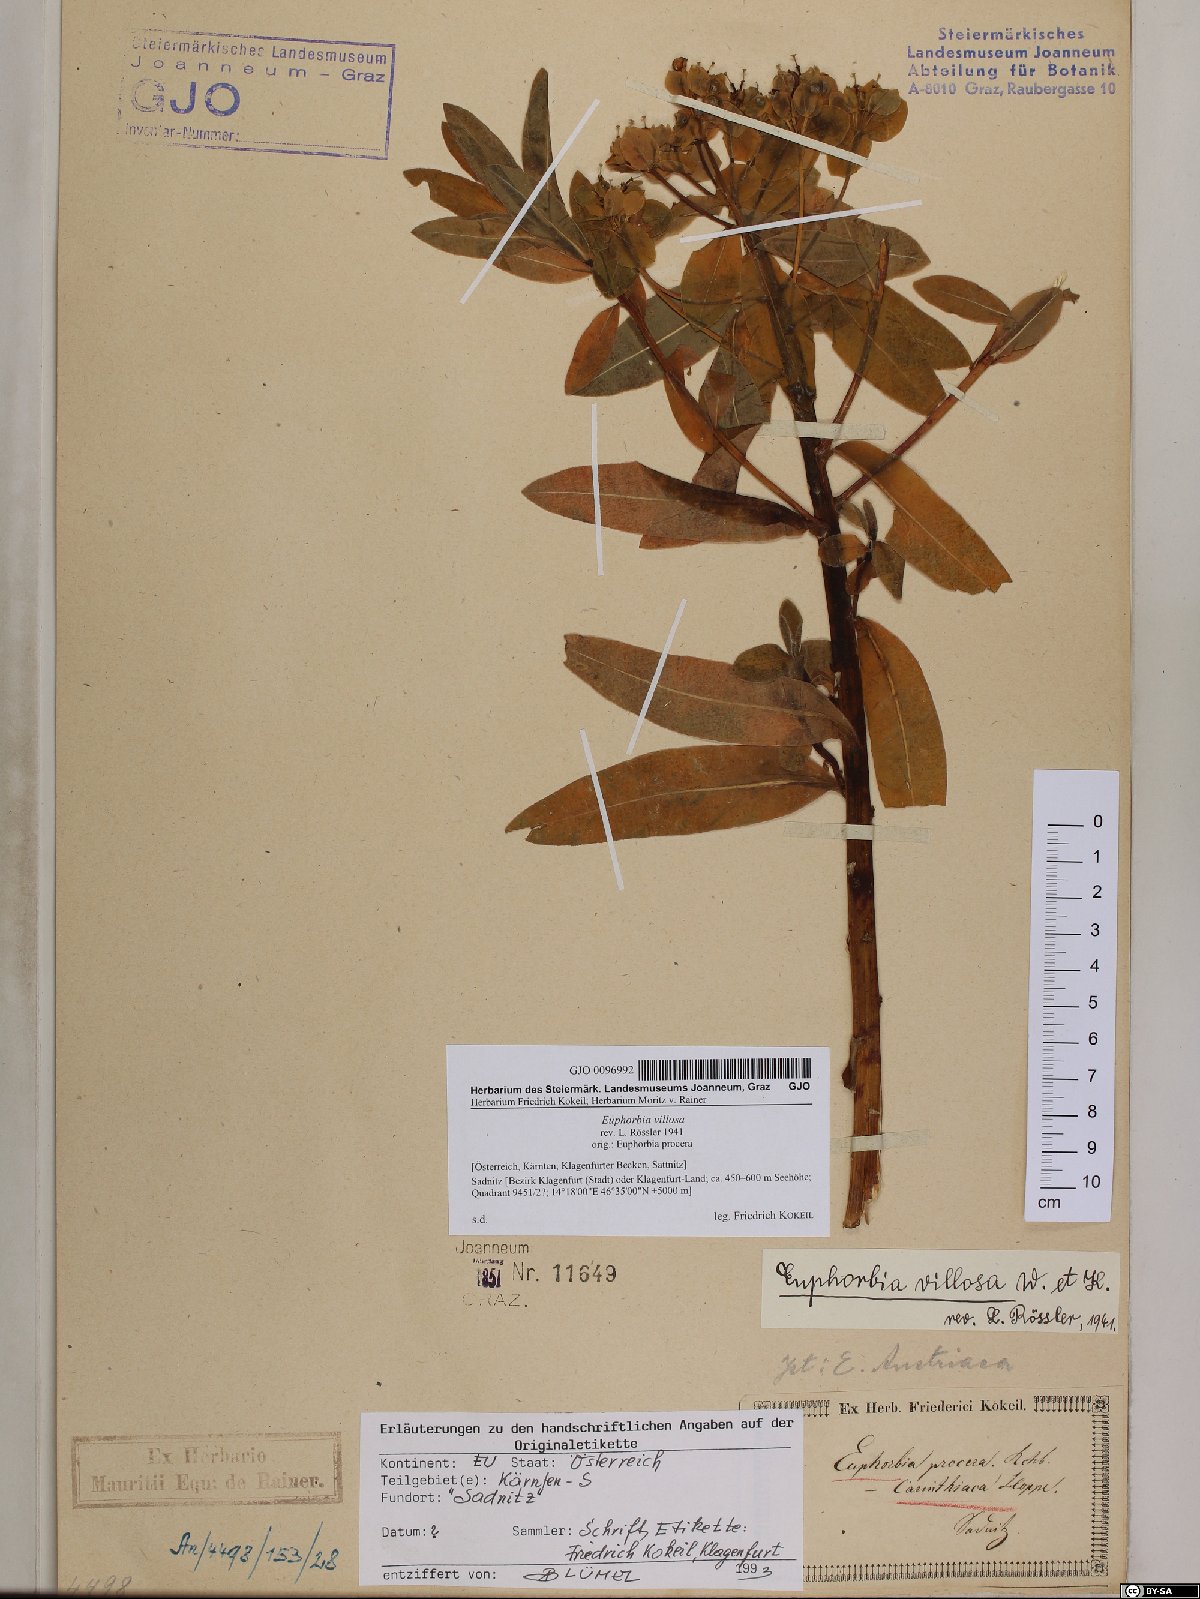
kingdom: Plantae
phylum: Tracheophyta
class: Magnoliopsida
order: Malpighiales
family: Euphorbiaceae
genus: Euphorbia
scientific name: Euphorbia illirica
